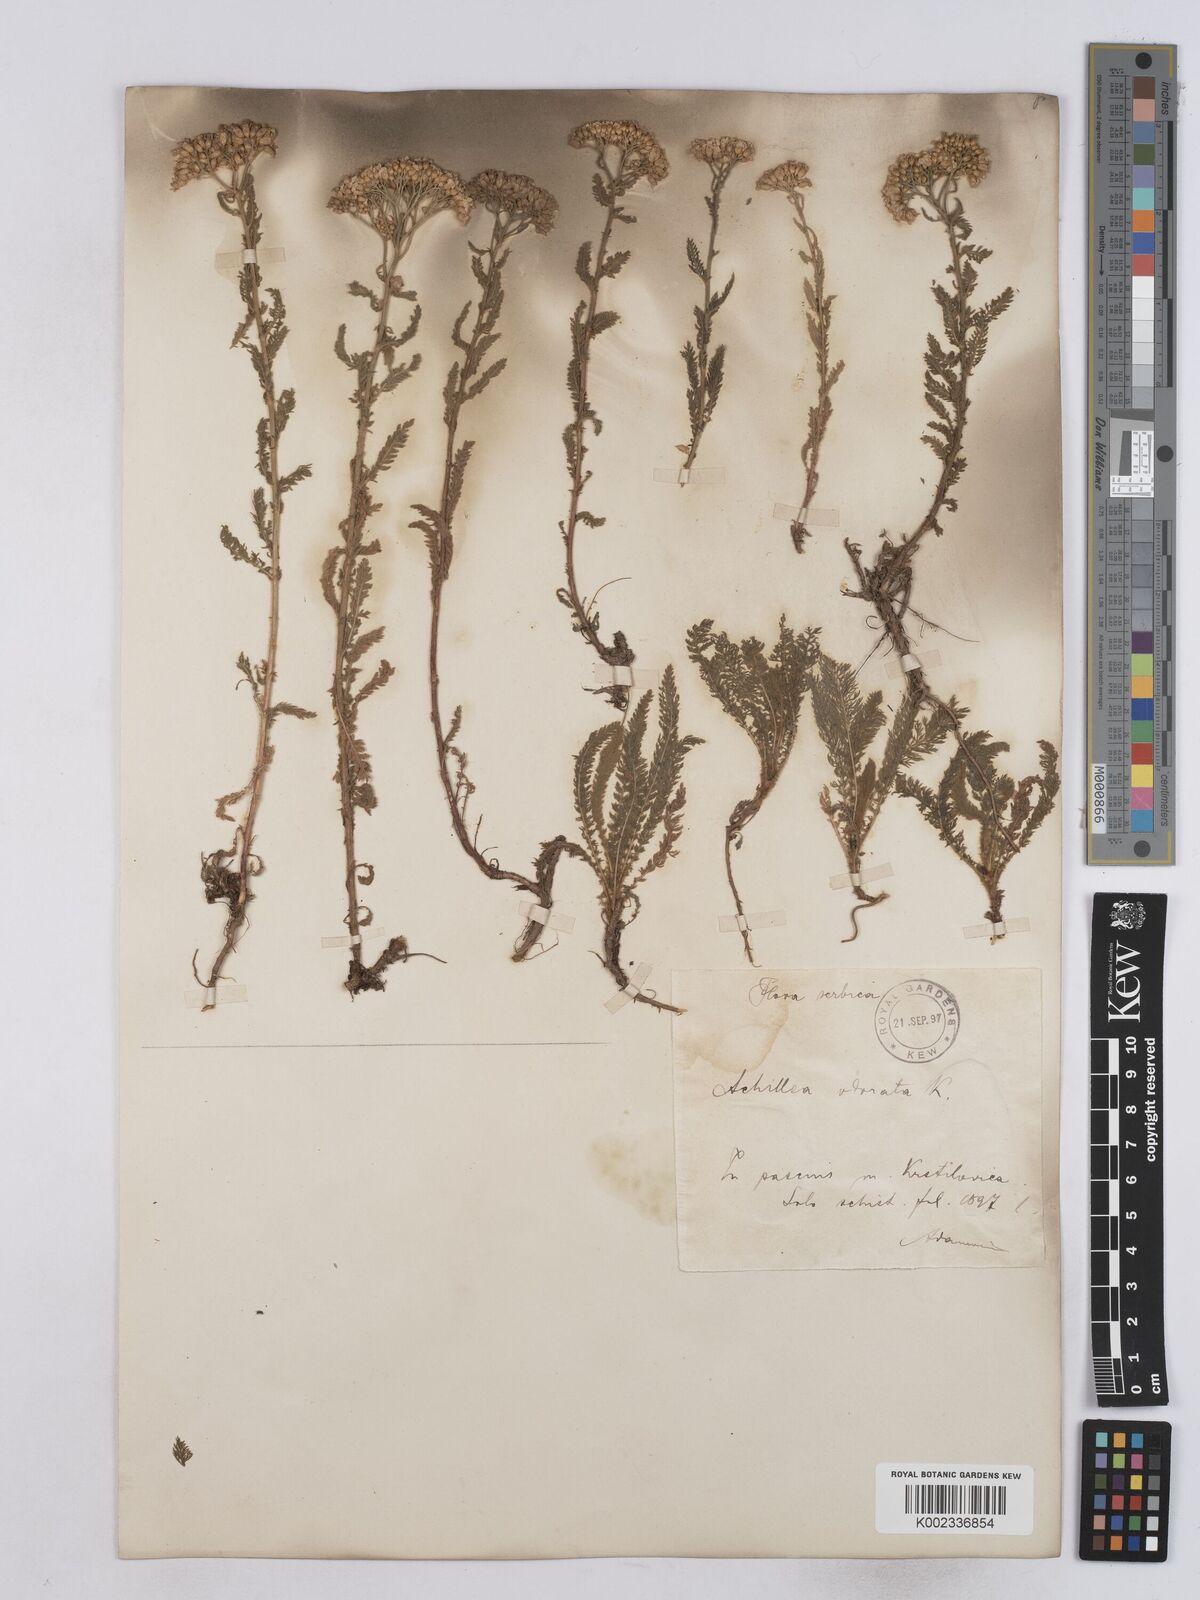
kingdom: Plantae
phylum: Tracheophyta
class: Magnoliopsida
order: Asterales
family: Asteraceae
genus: Achillea
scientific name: Achillea crithmifolia
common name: Yarrow
